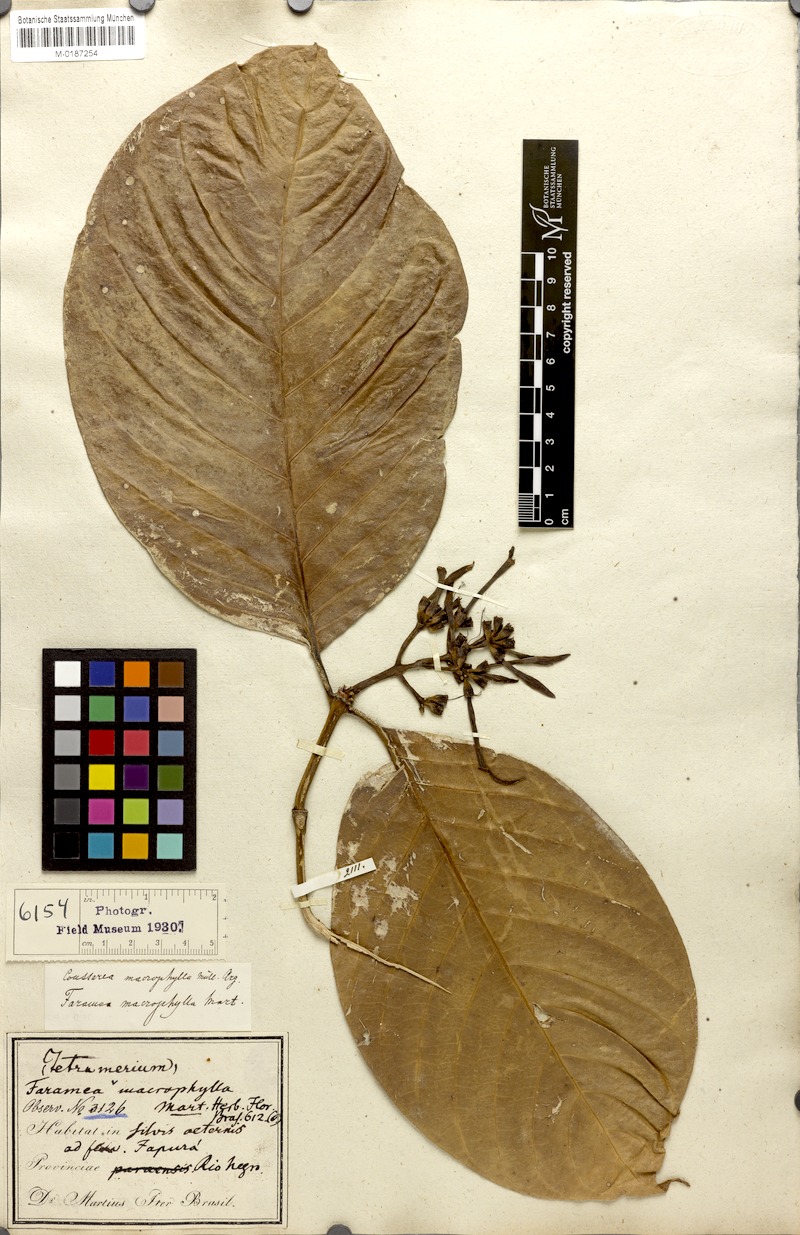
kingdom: Plantae
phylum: Tracheophyta
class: Magnoliopsida
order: Gentianales
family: Rubiaceae
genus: Coussarea
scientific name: Coussarea macrophylla
